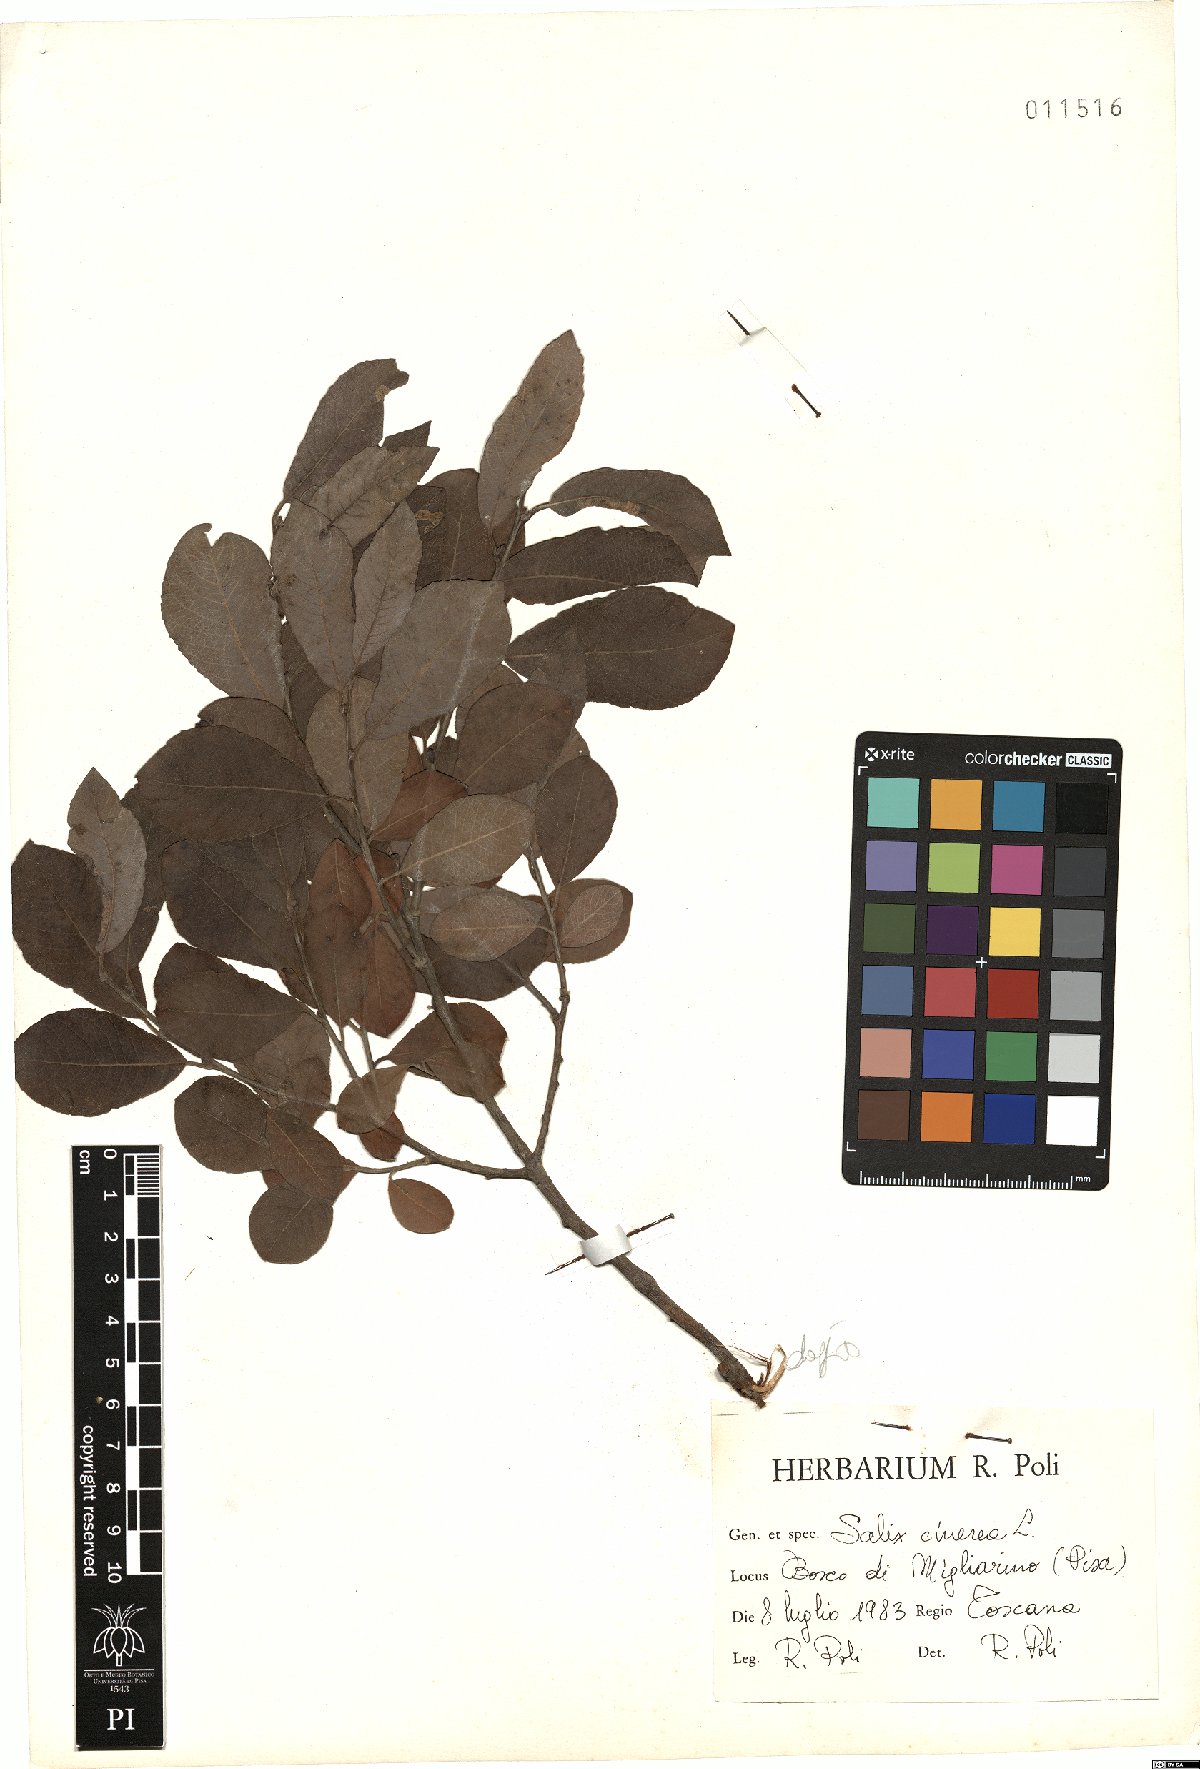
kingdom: Plantae
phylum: Tracheophyta
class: Magnoliopsida
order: Malpighiales
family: Salicaceae
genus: Salix
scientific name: Salix cinerea
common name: Common sallow
